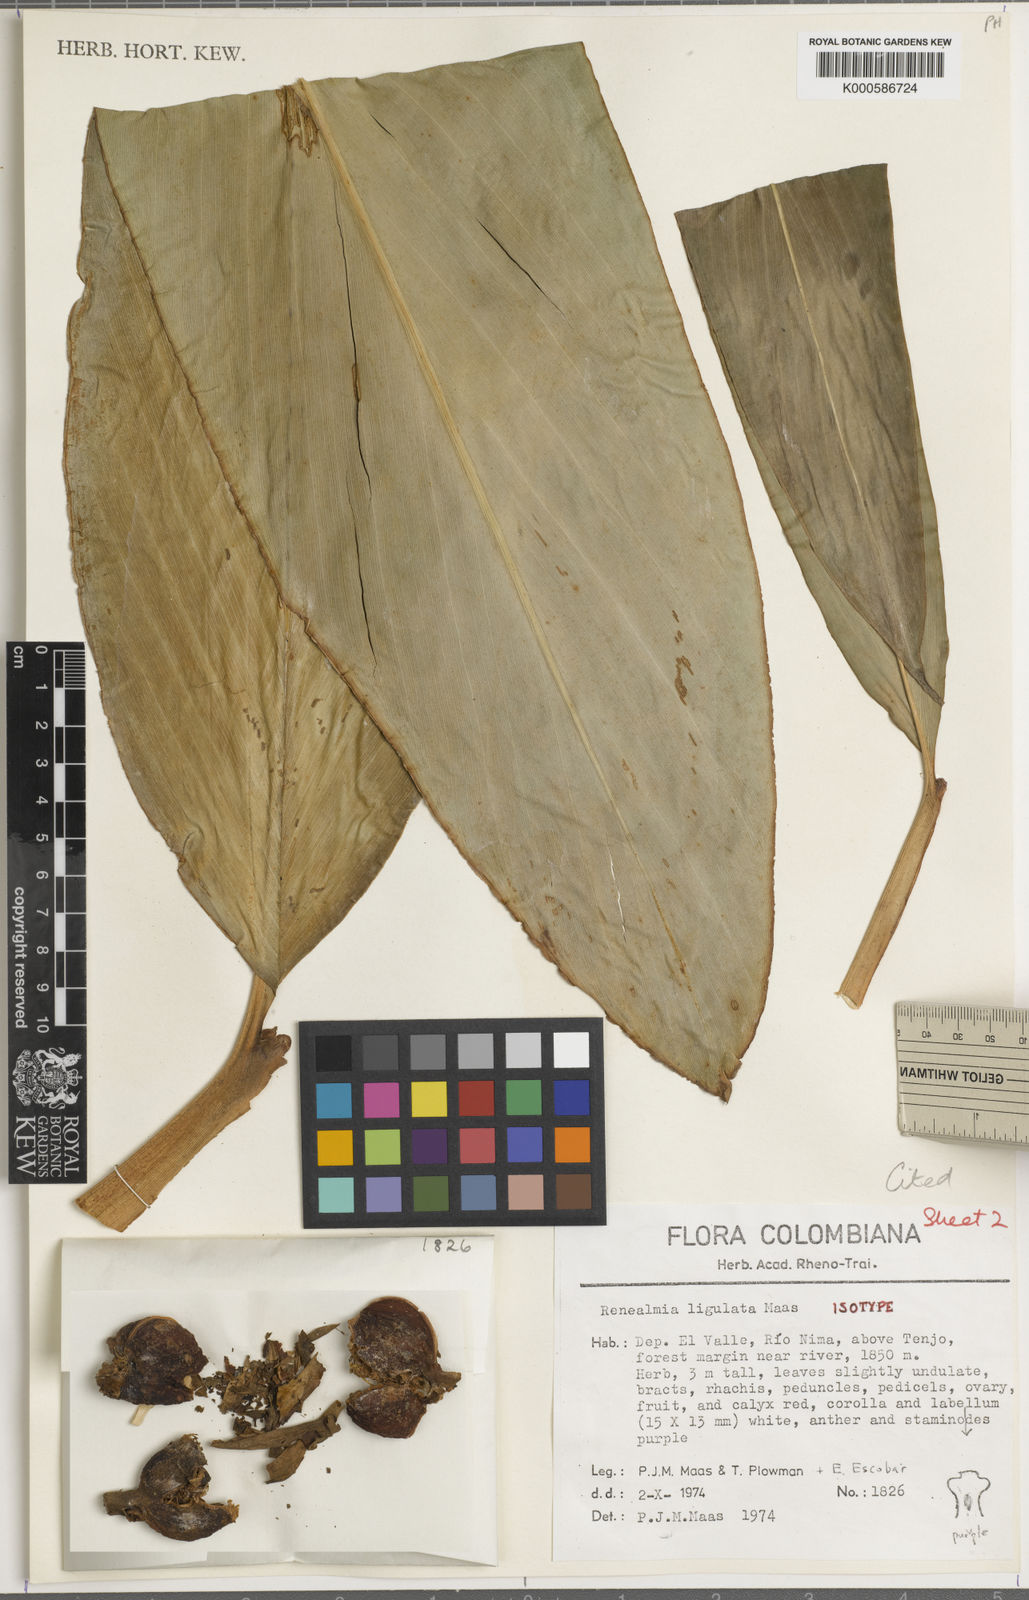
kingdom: Plantae
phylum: Tracheophyta
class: Liliopsida
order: Zingiberales
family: Zingiberaceae
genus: Renealmia
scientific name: Renealmia ligulata
